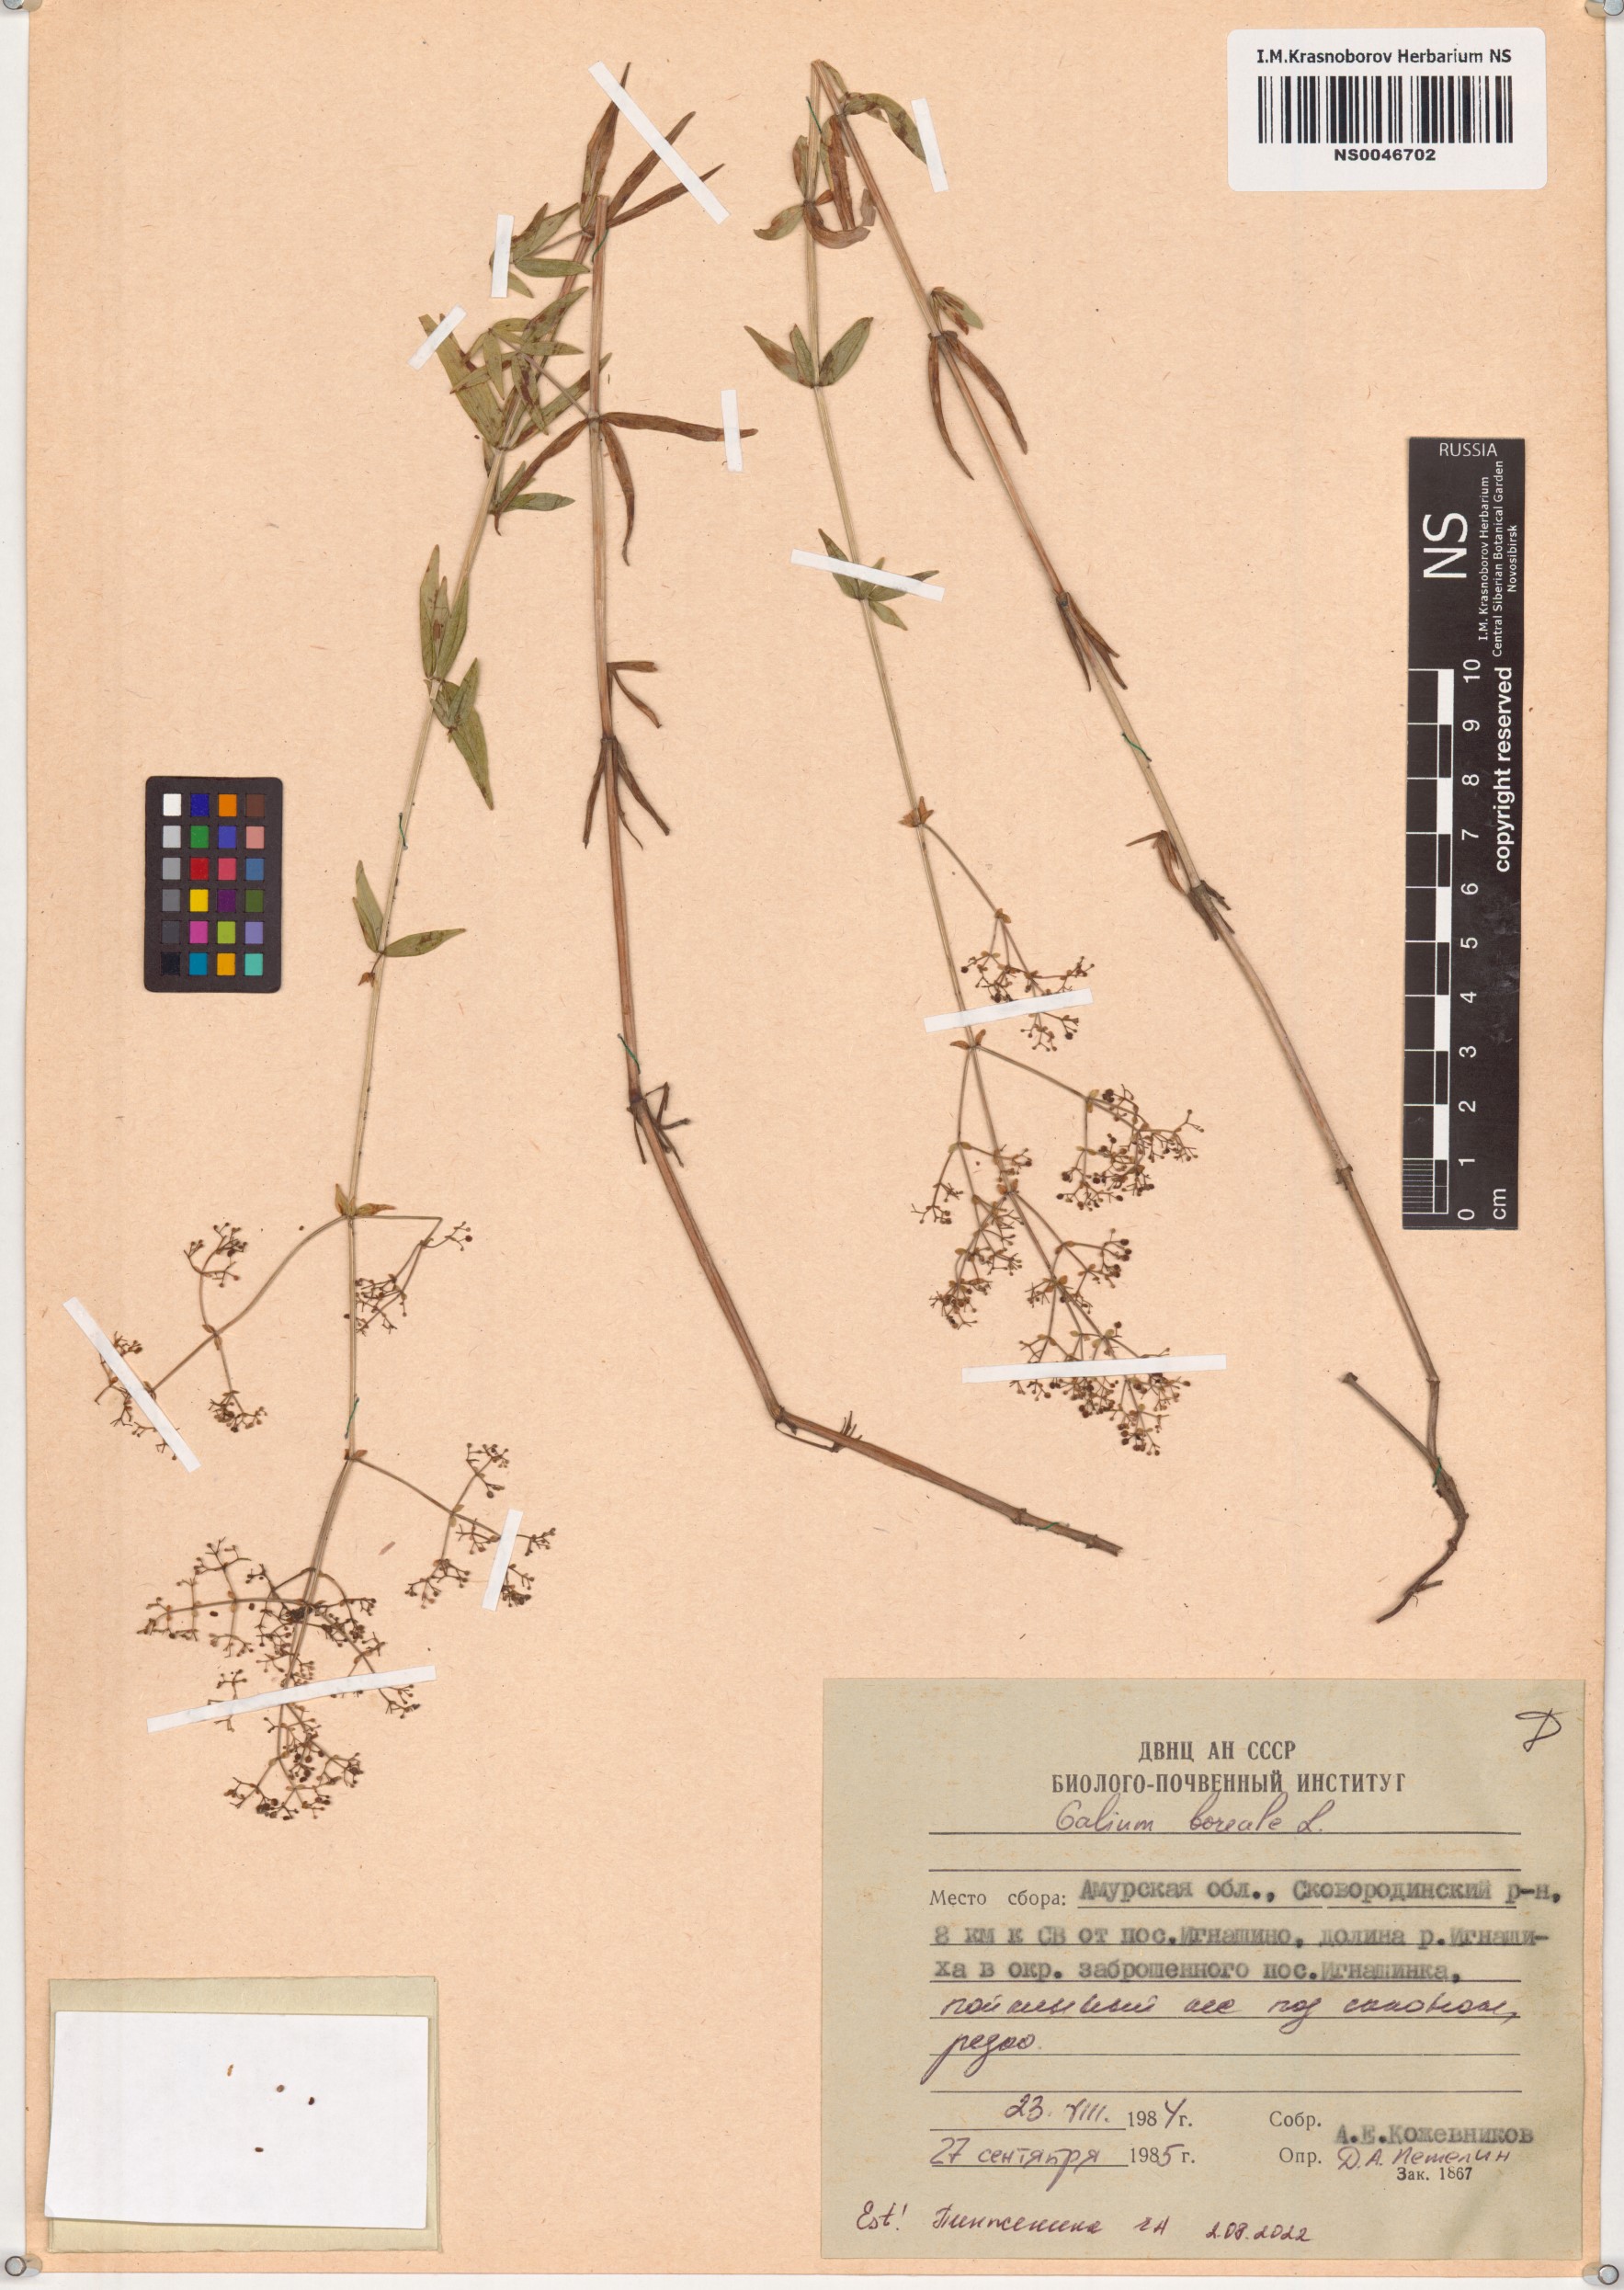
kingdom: Plantae
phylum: Tracheophyta
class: Magnoliopsida
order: Gentianales
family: Rubiaceae
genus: Galium
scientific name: Galium boreale
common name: Northern bedstraw
